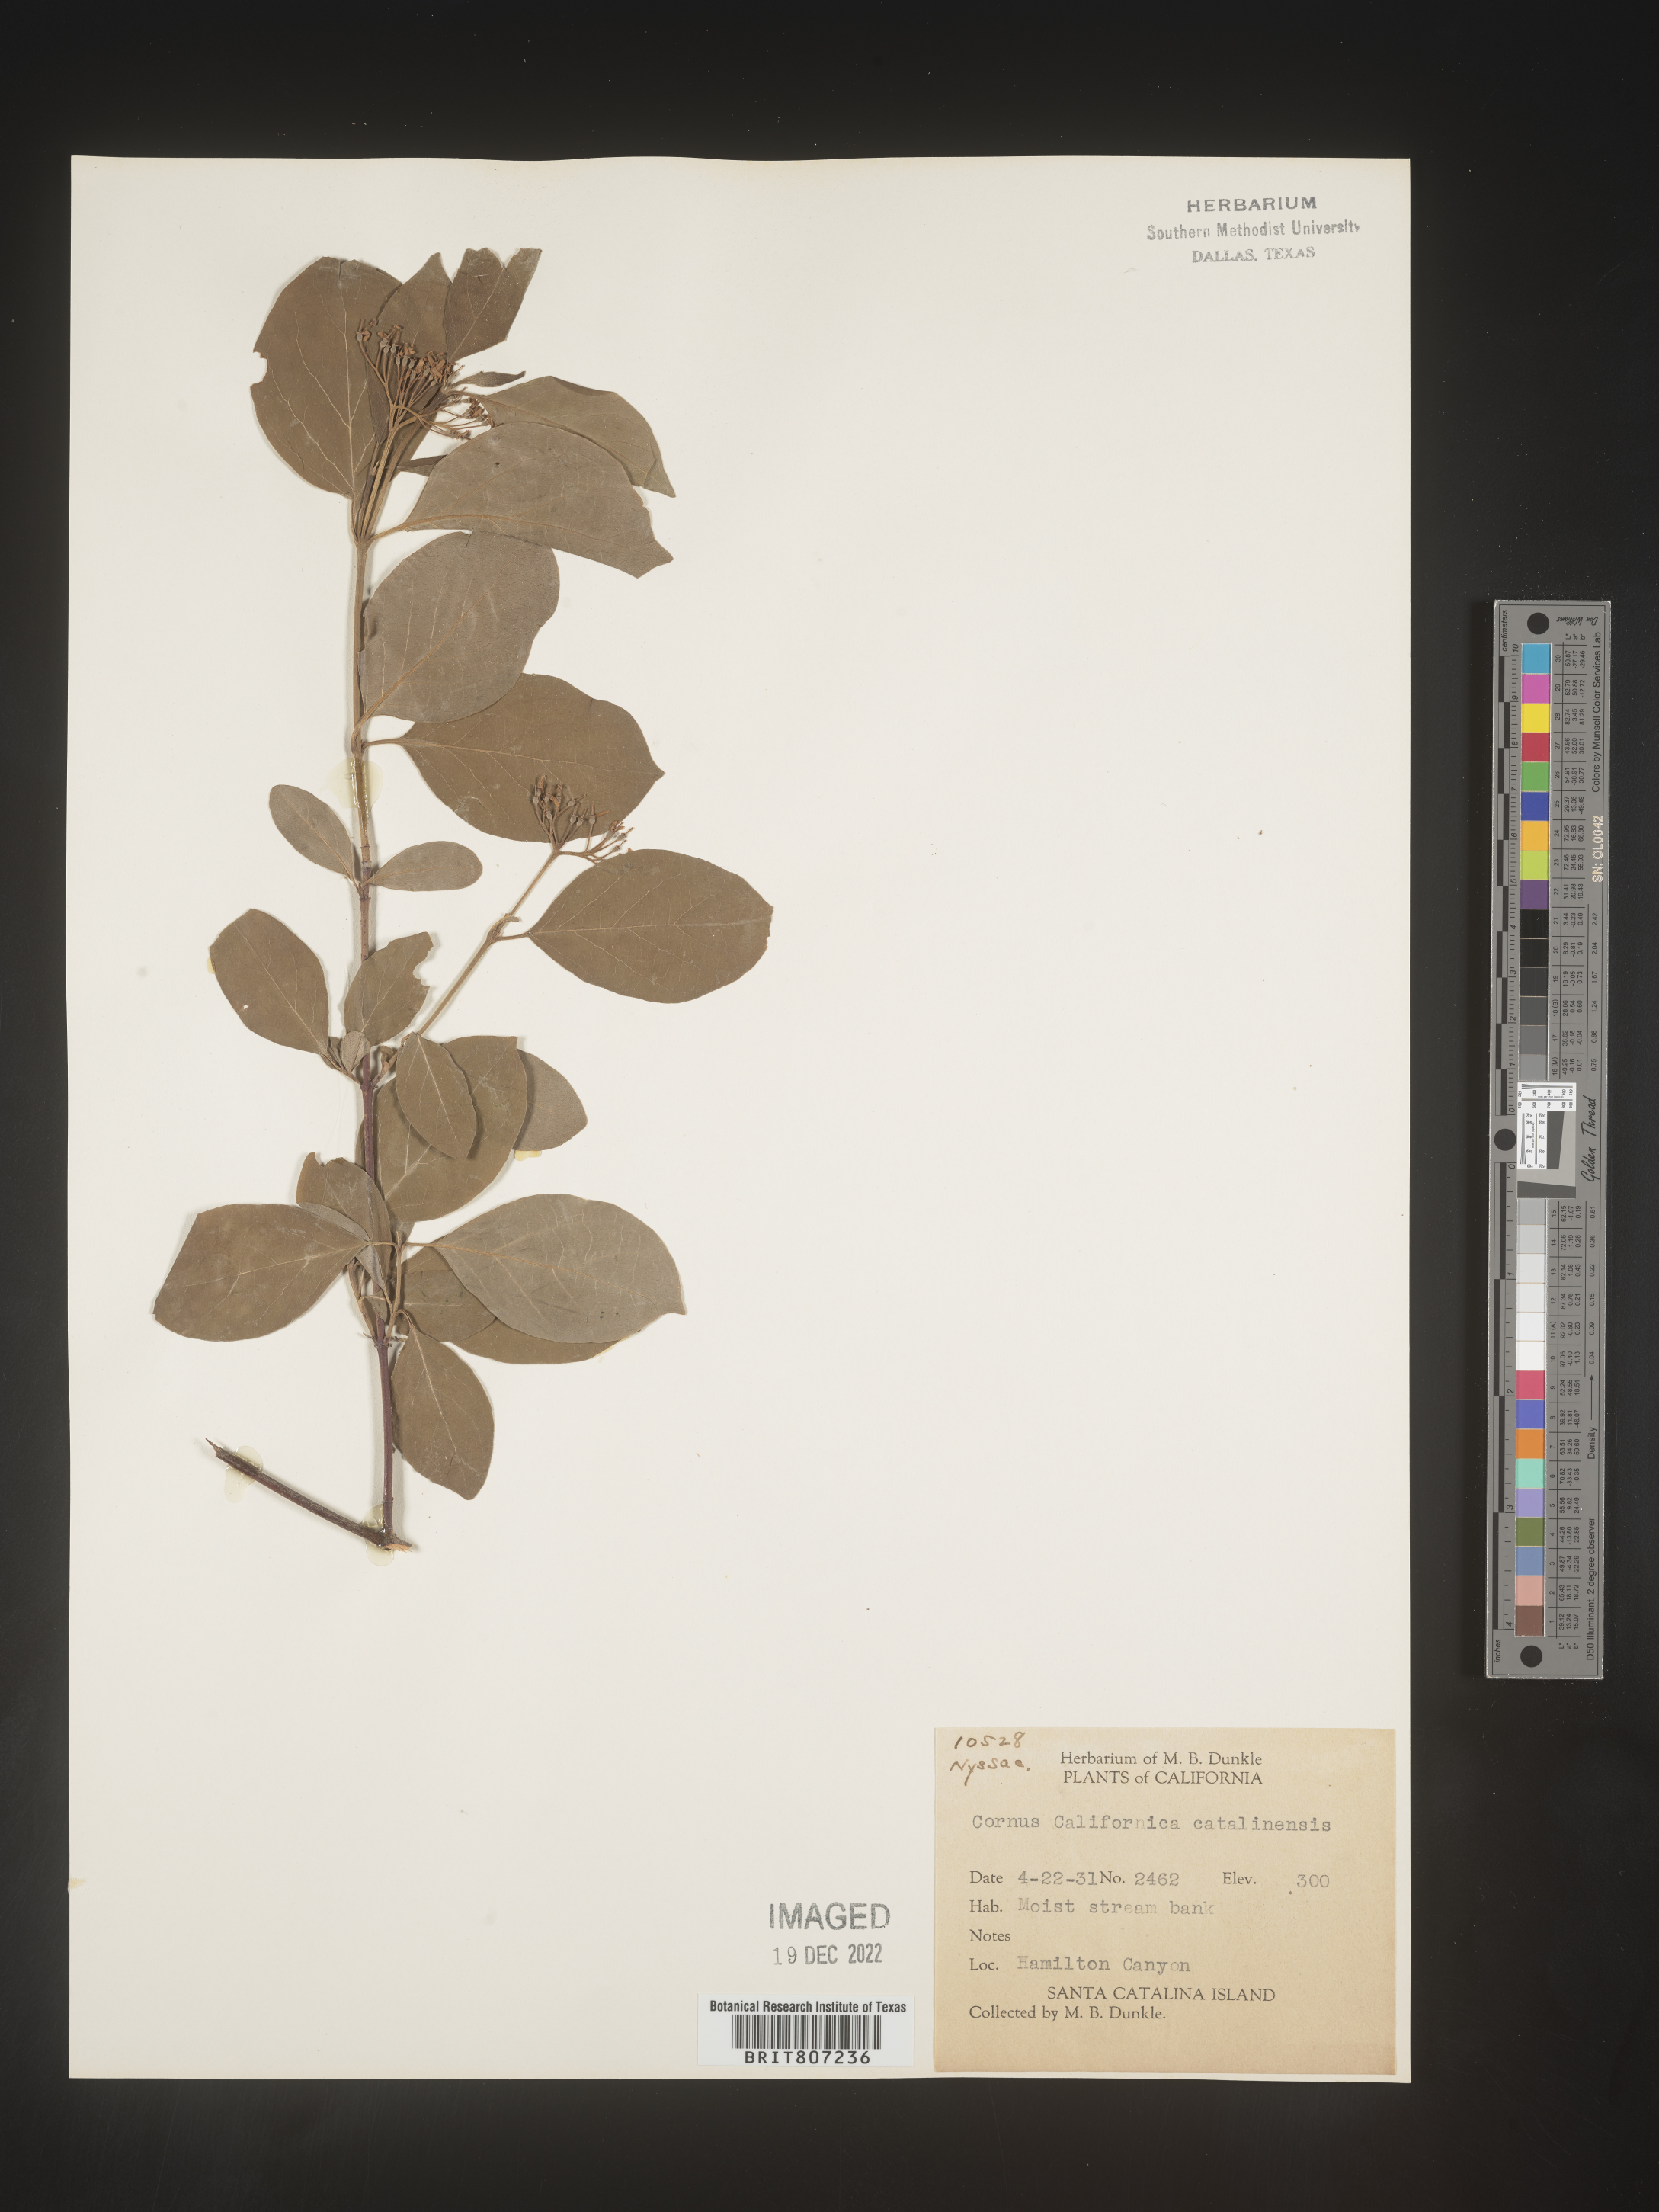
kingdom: Plantae
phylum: Tracheophyta
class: Magnoliopsida
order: Cornales
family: Cornaceae
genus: Cornus
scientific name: Cornus
